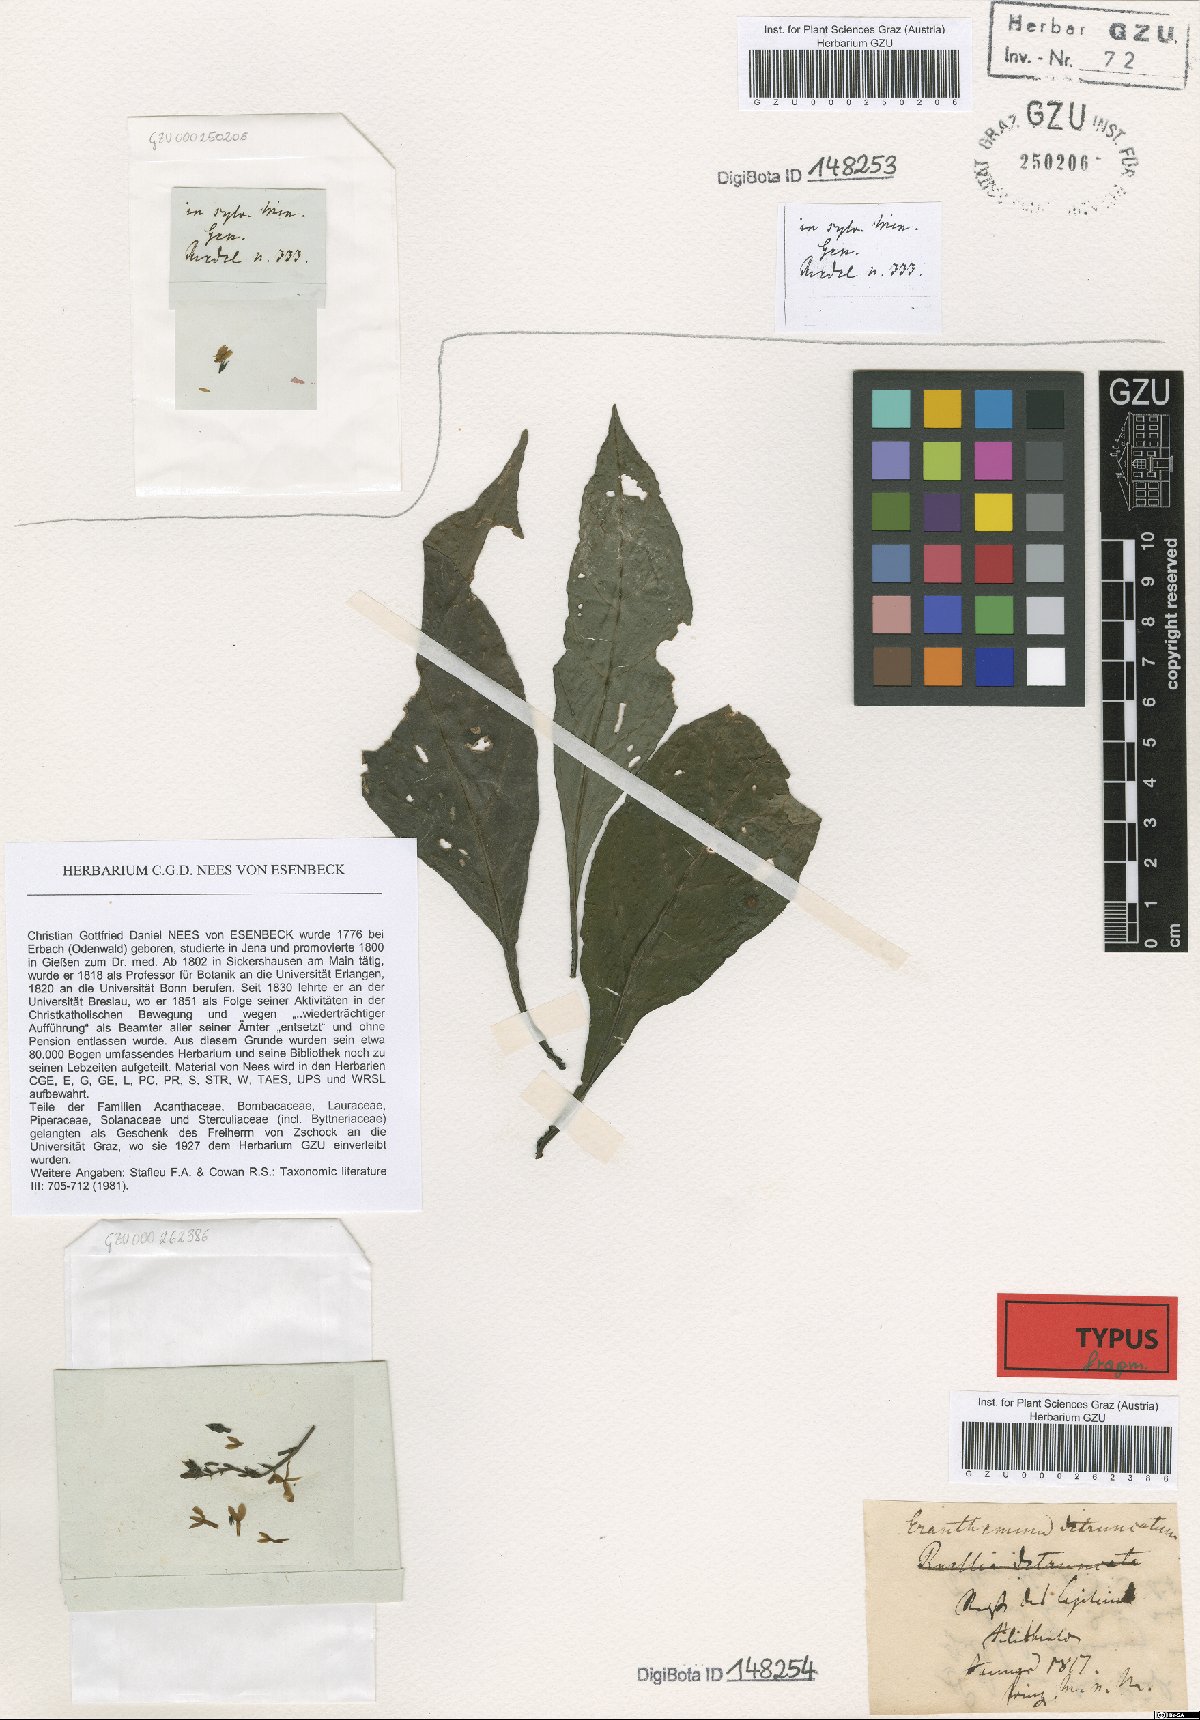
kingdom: Plantae
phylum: Tracheophyta
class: Magnoliopsida
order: Lamiales
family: Acanthaceae
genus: Pseuderanthemum
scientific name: Pseuderanthemum detruncatum
